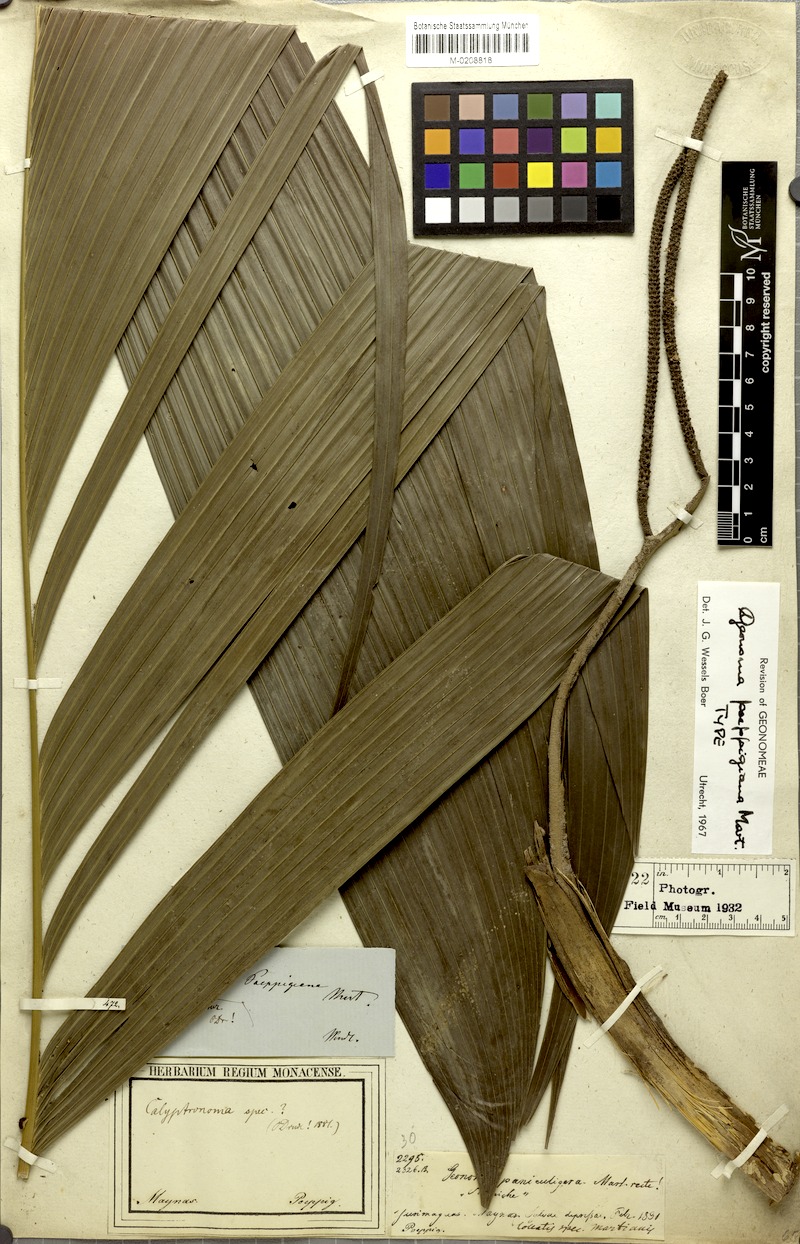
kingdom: Plantae
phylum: Tracheophyta
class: Liliopsida
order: Arecales
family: Arecaceae
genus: Geonoma
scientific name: Geonoma poeppigiana
